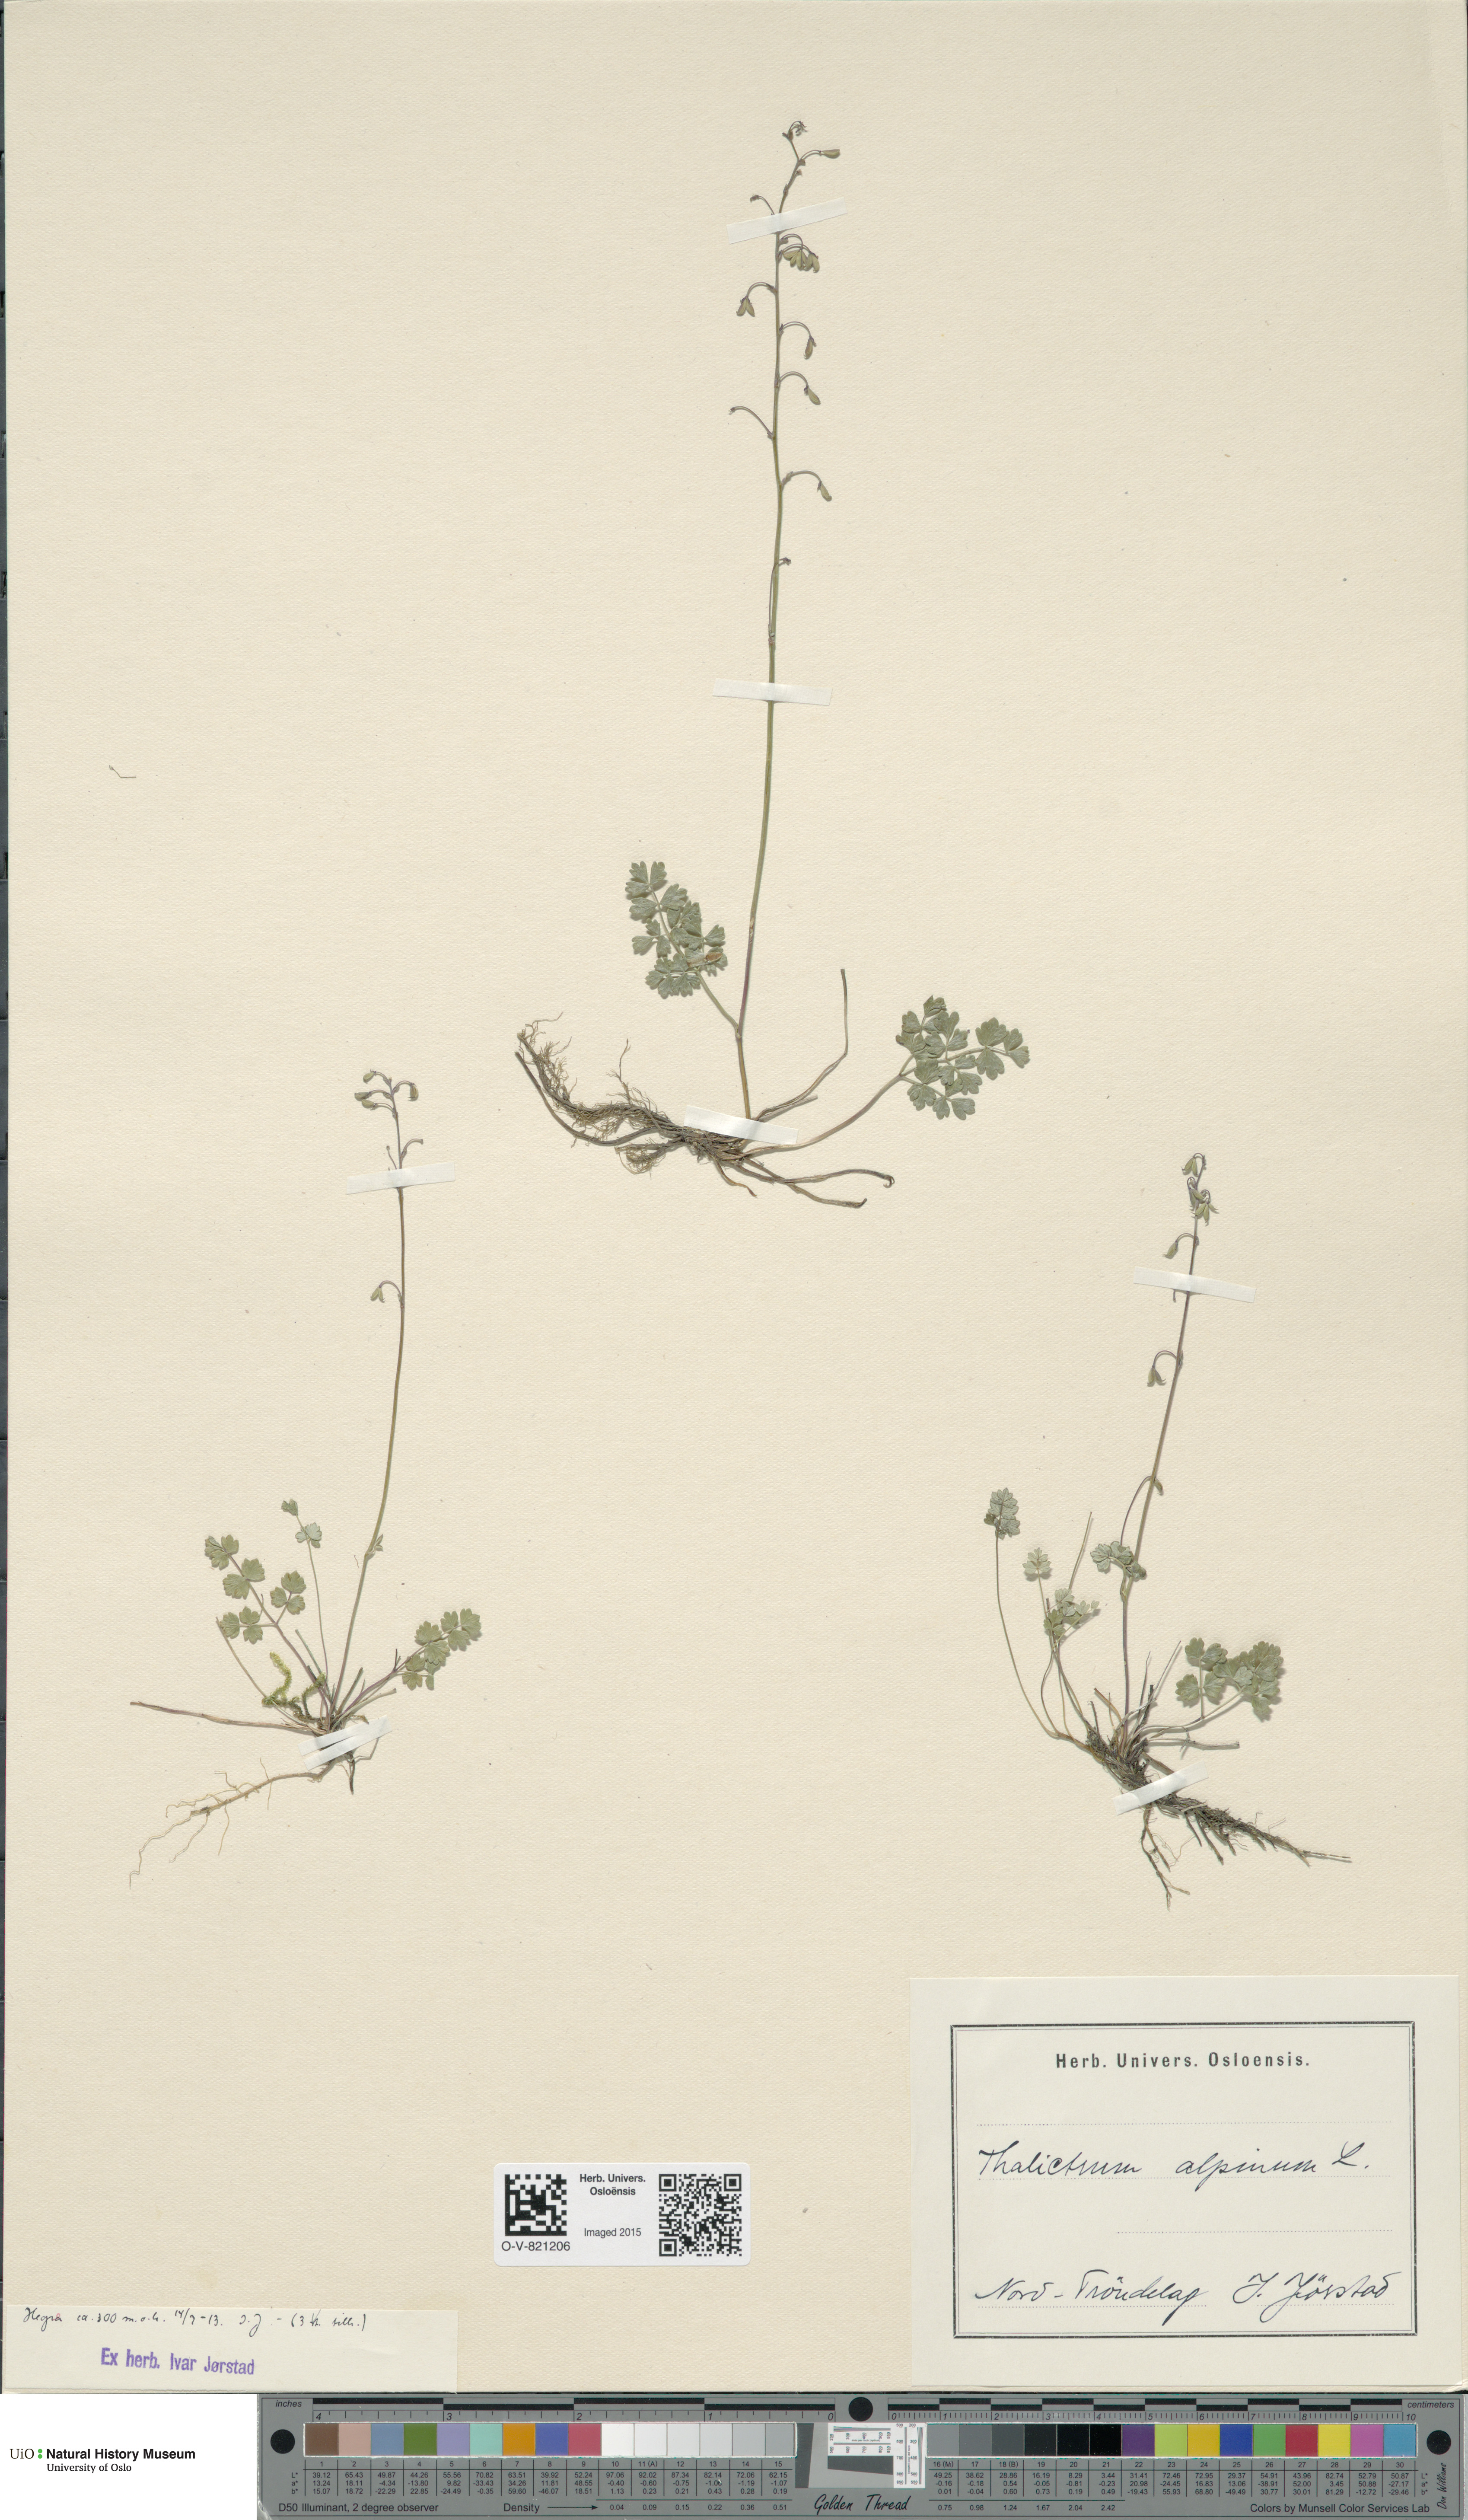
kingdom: Plantae
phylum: Tracheophyta
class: Magnoliopsida
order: Ranunculales
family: Ranunculaceae
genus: Thalictrum
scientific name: Thalictrum alpinum
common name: Alpine meadow-rue
